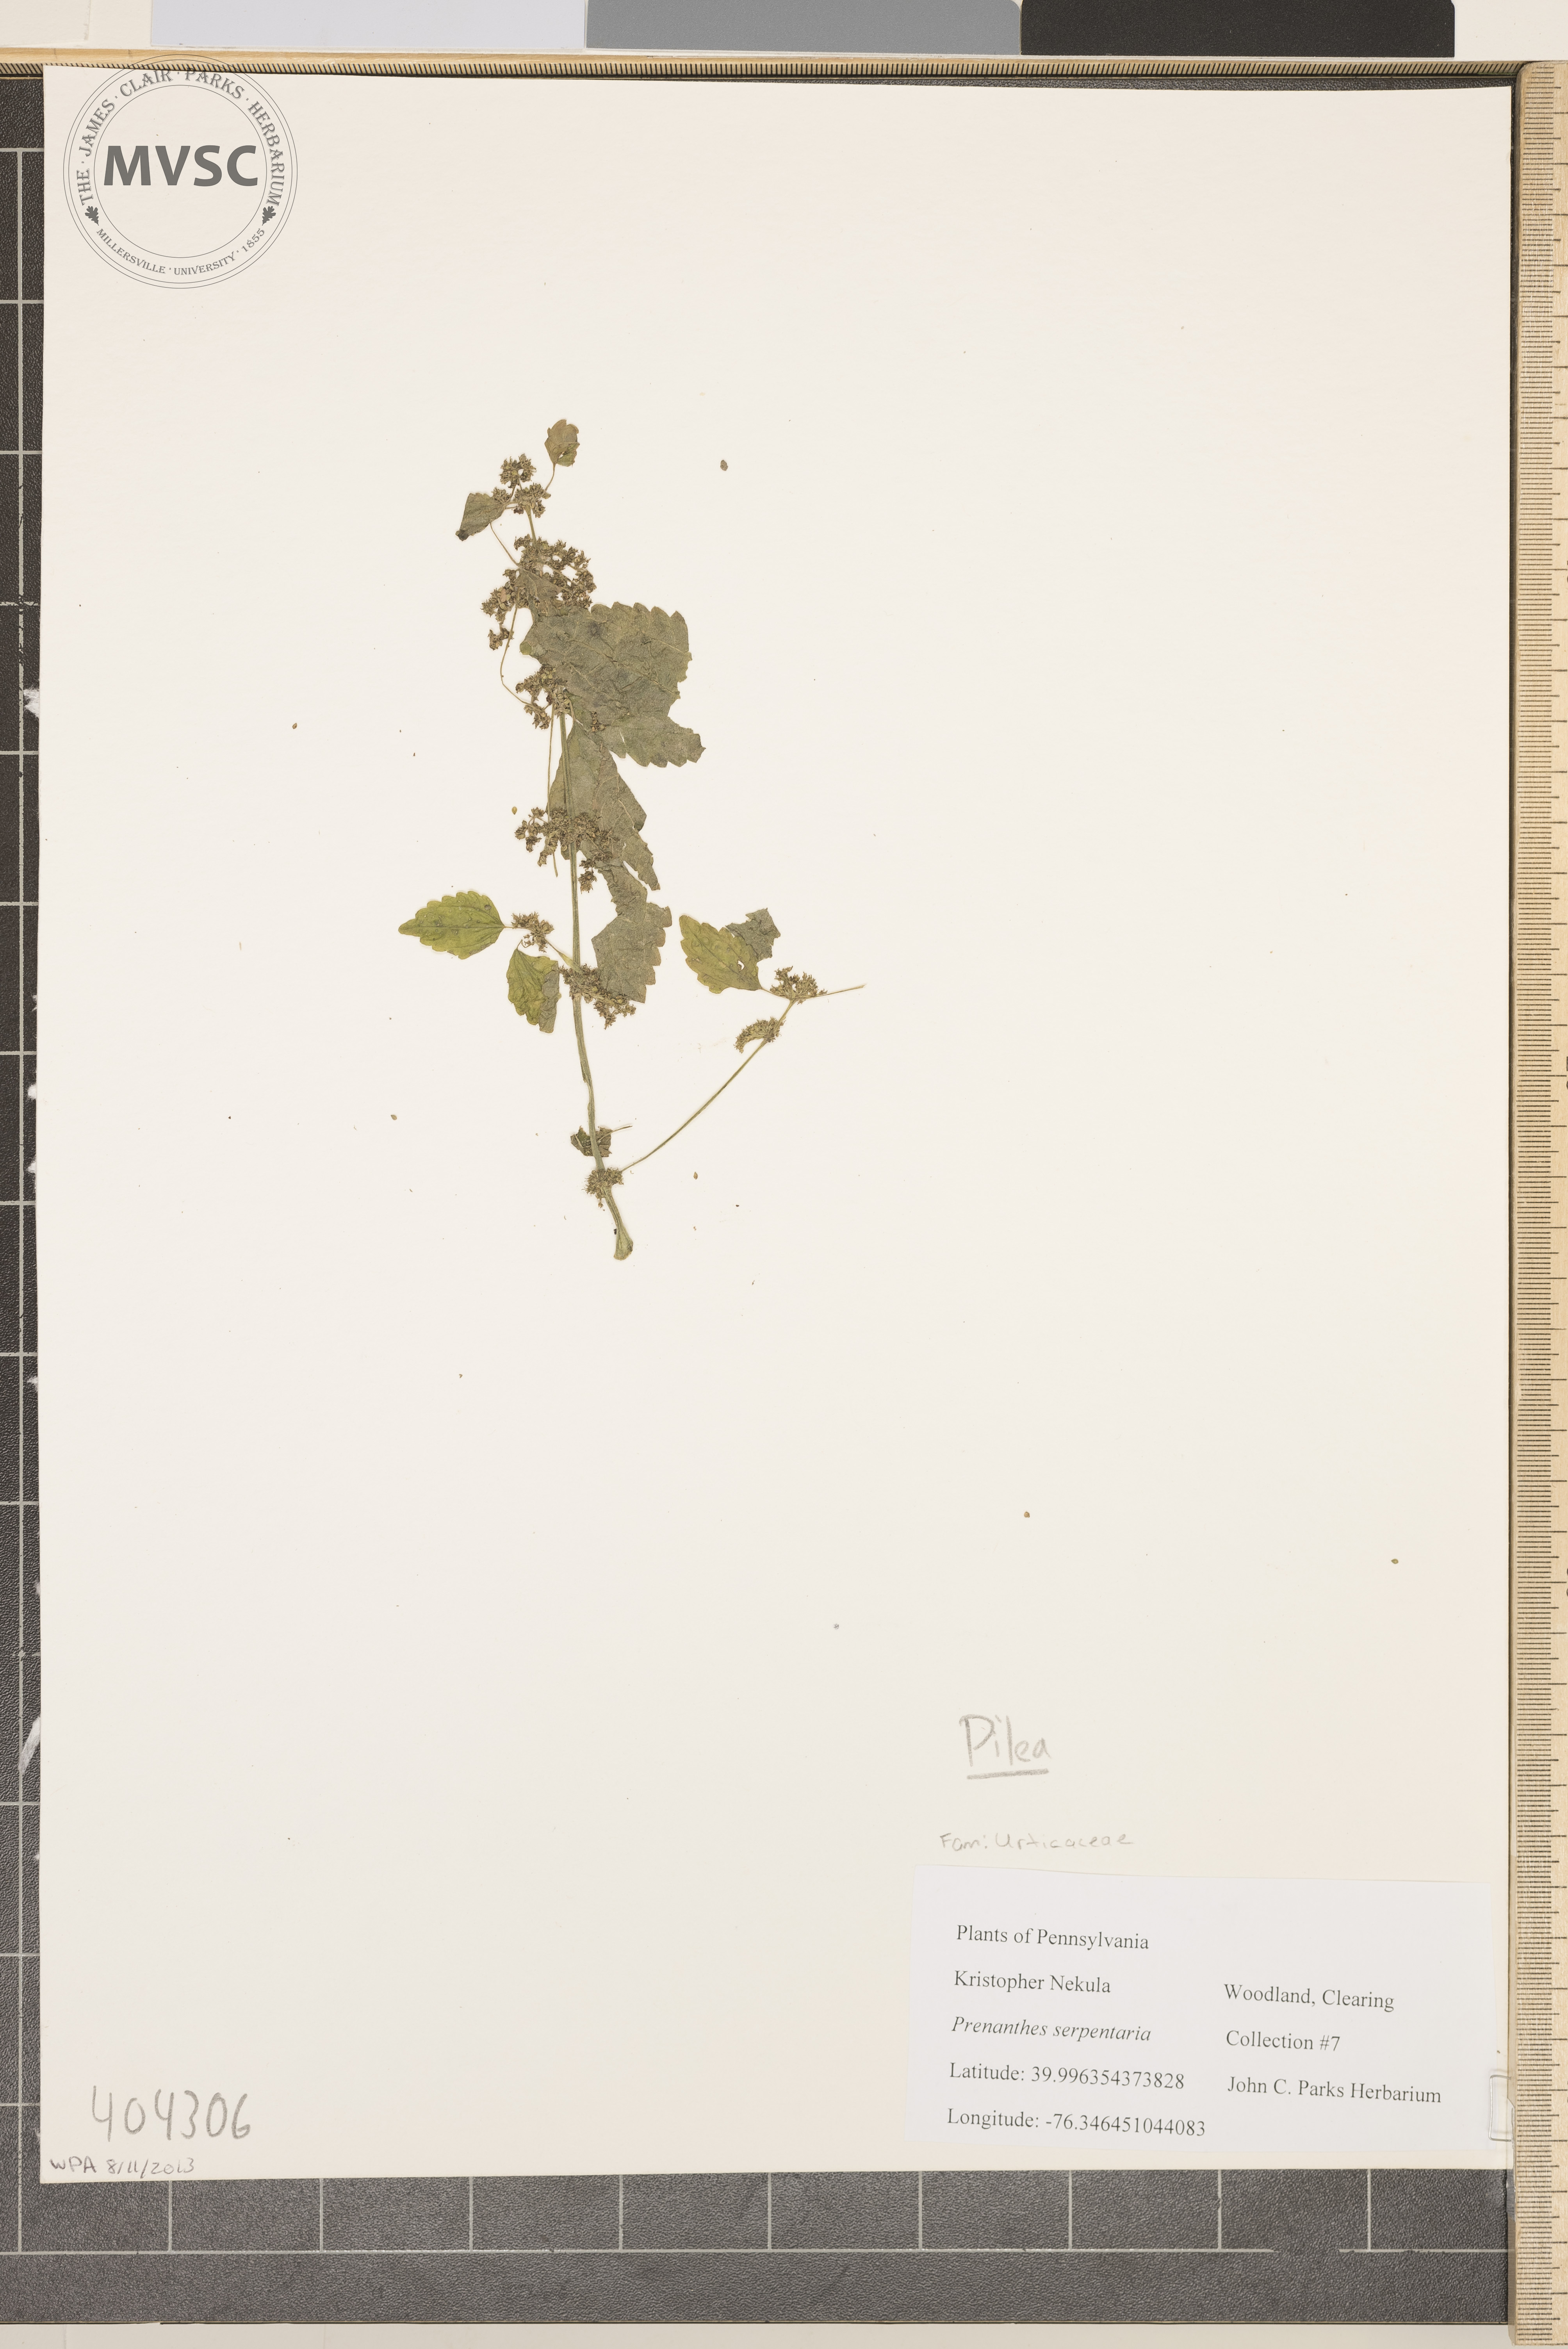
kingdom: Plantae
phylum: Tracheophyta
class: Magnoliopsida
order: Rosales
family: Urticaceae
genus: Pilea
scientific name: Pilea pumila
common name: Clearweed
